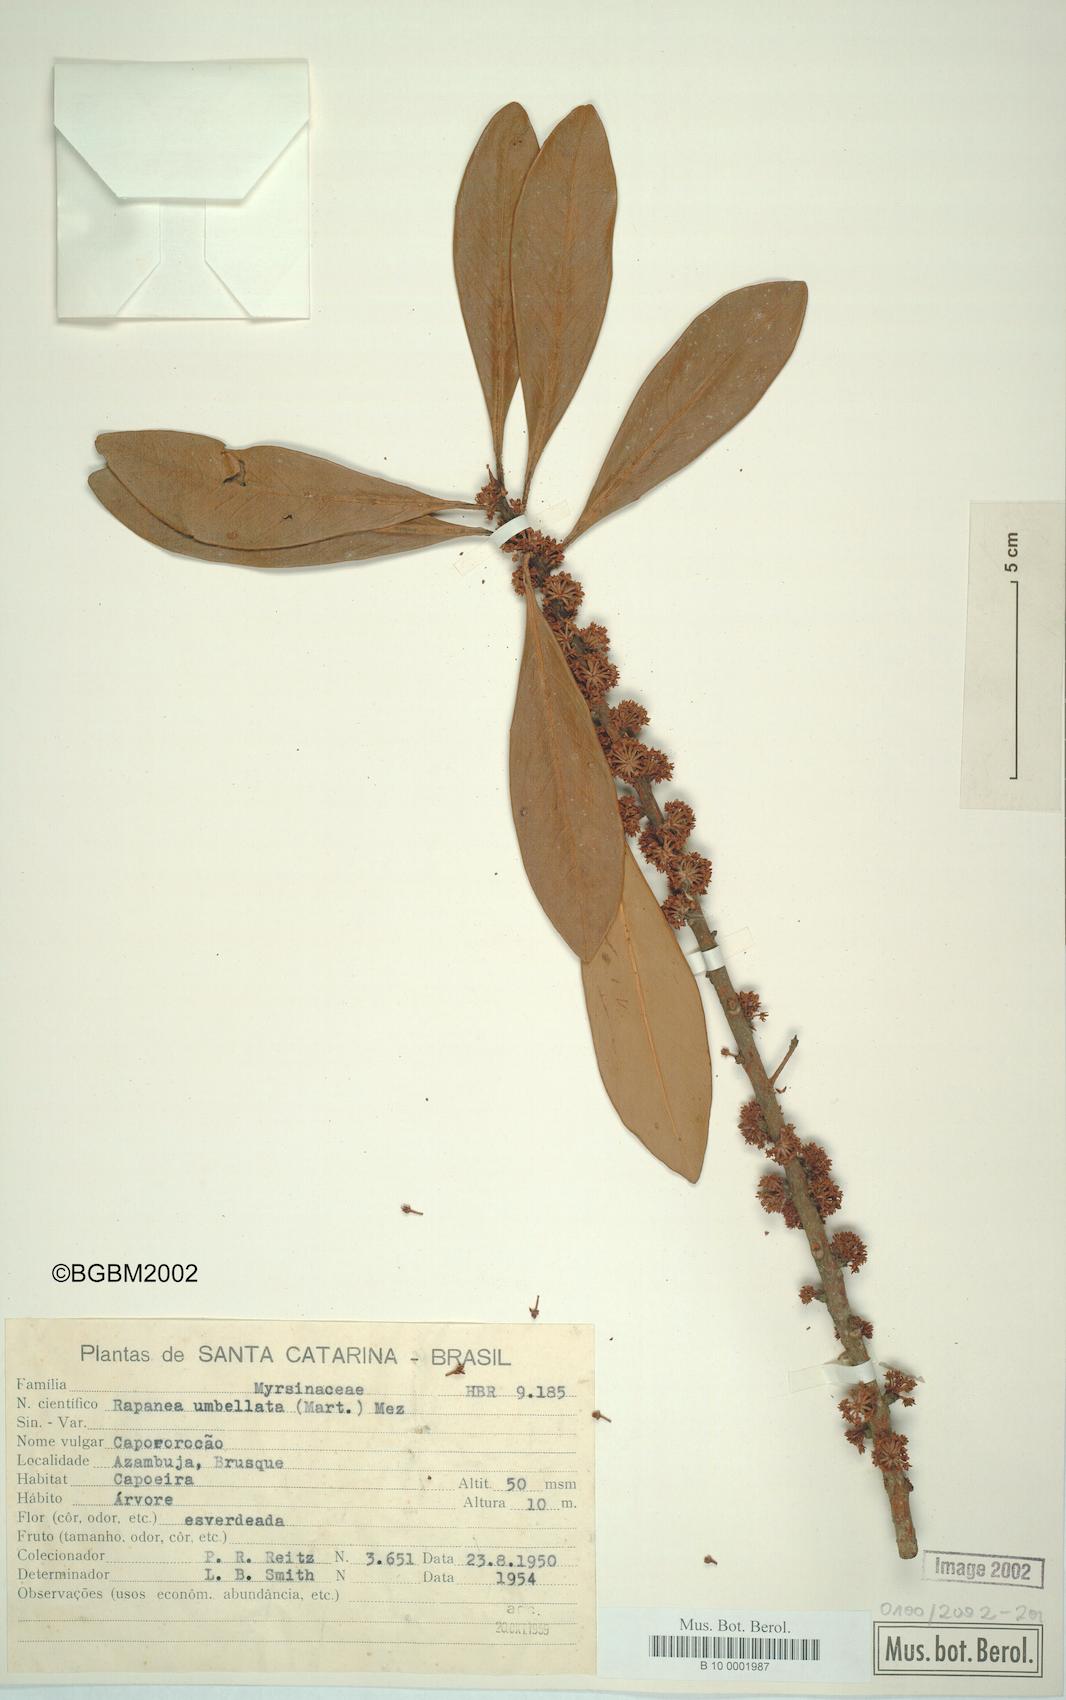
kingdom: Plantae
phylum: Tracheophyta
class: Magnoliopsida
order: Ericales
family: Primulaceae
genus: Myrsine
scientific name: Myrsine umbellata
